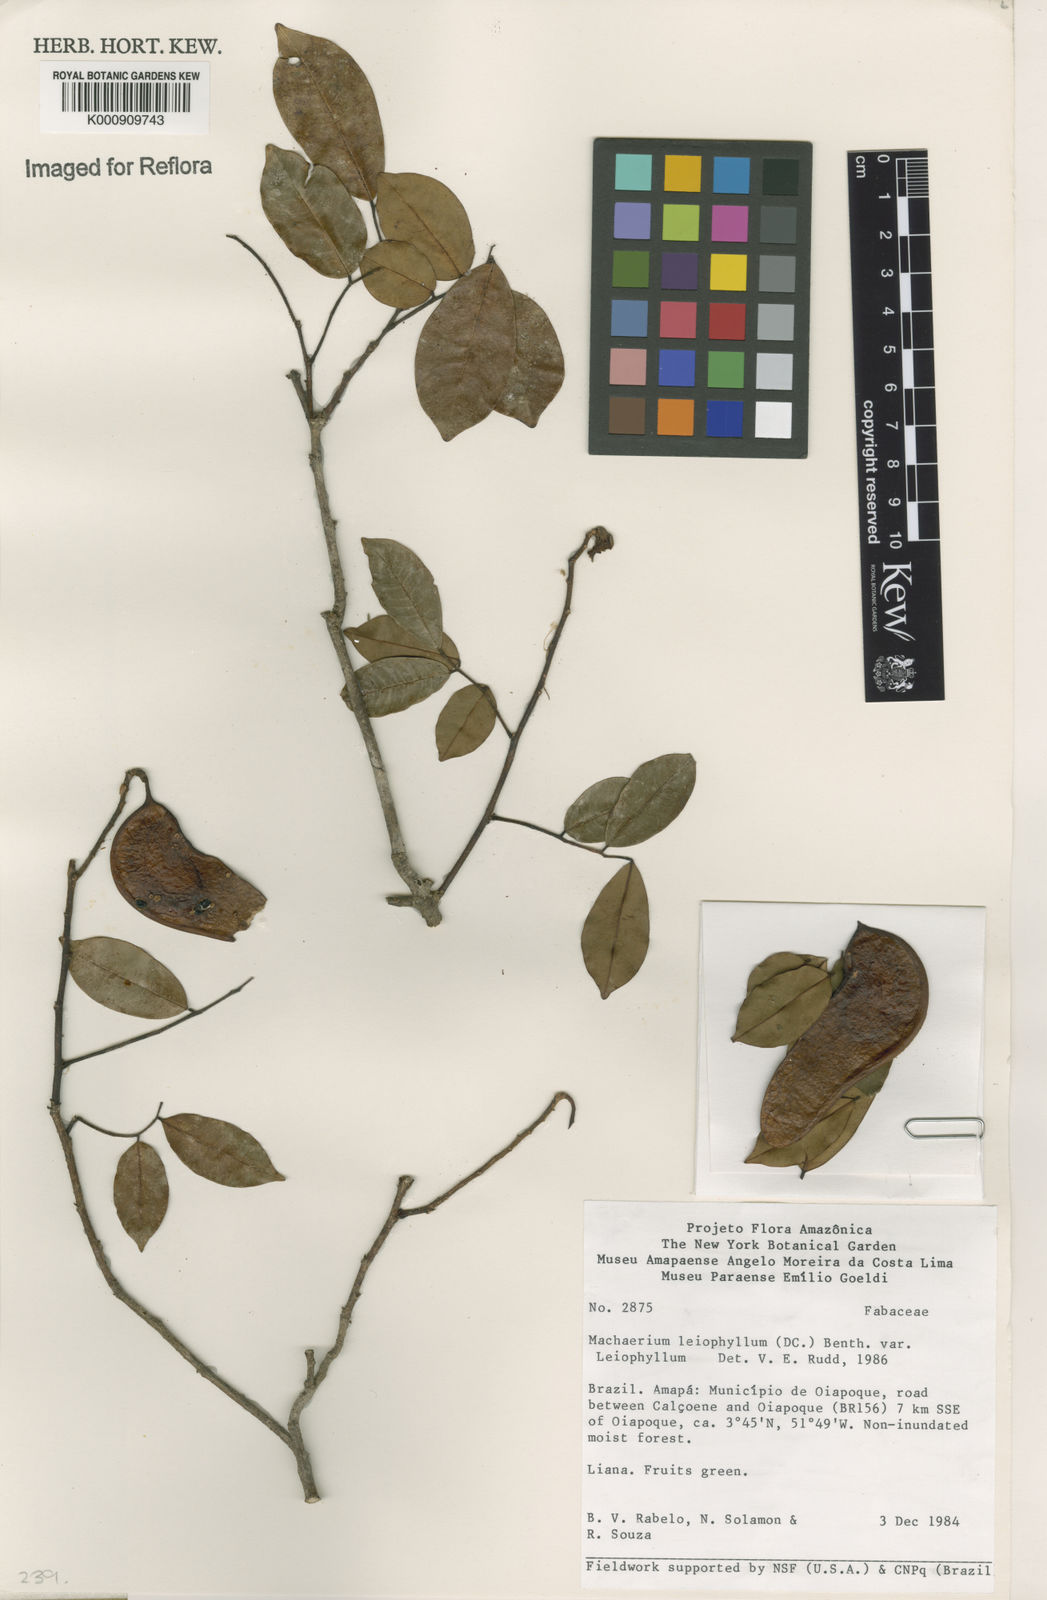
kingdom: Plantae
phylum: Tracheophyta
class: Magnoliopsida
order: Fabales
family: Fabaceae
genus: Machaerium
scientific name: Machaerium leiophyllum
